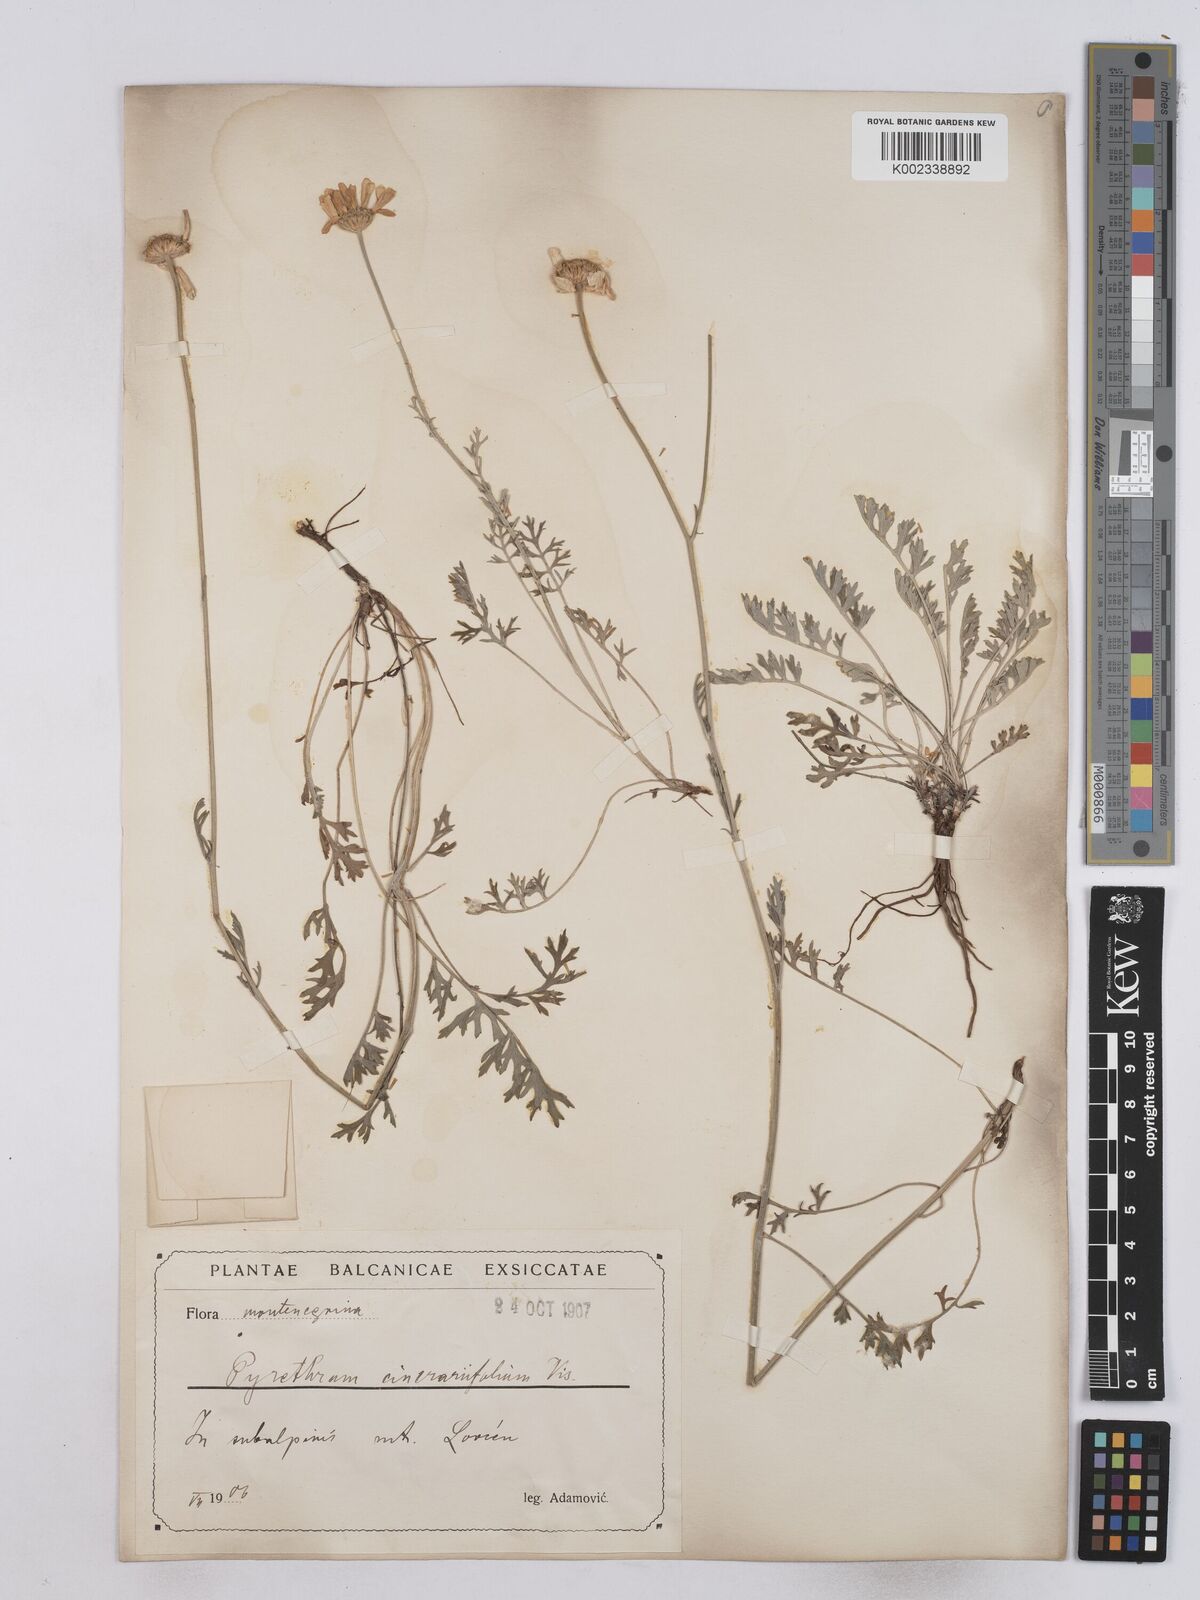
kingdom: Plantae
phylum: Tracheophyta
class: Magnoliopsida
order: Asterales
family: Asteraceae
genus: Tanacetum
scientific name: Tanacetum cinerariifolium
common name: Dalmatian pyrethrum
